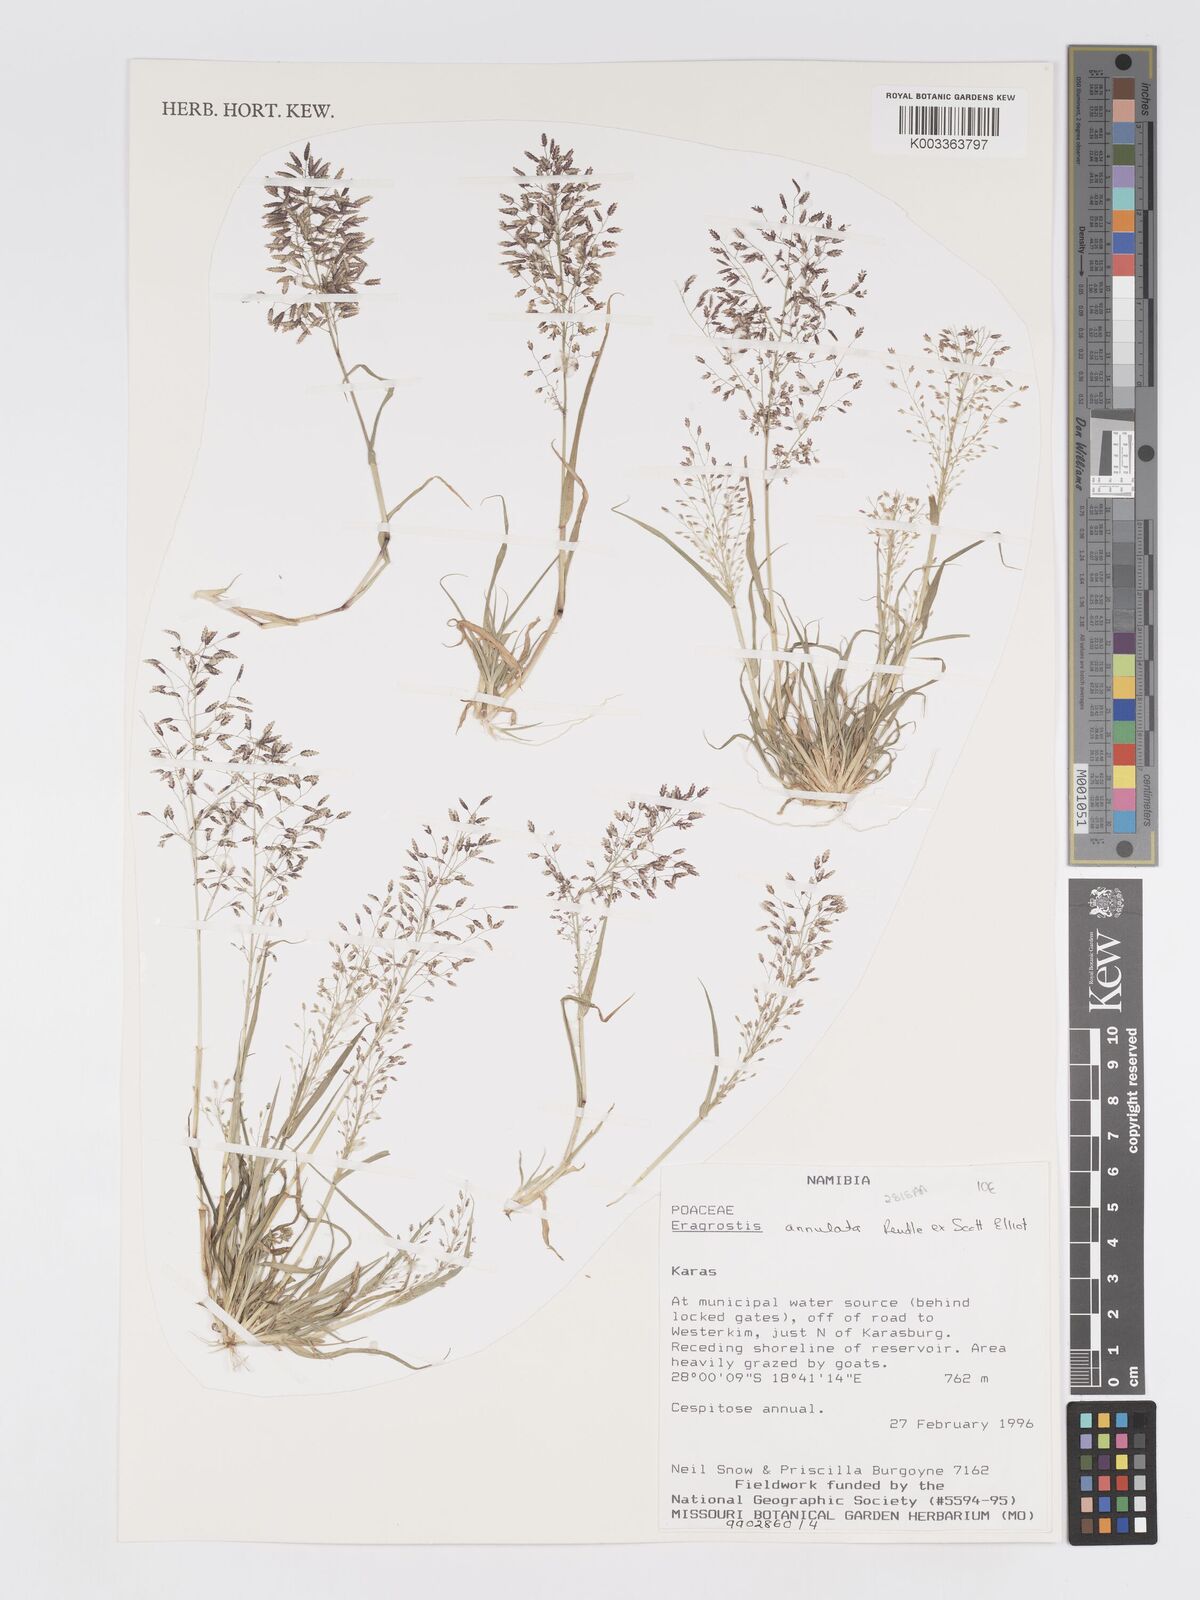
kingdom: Plantae
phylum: Tracheophyta
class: Liliopsida
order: Poales
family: Poaceae
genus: Eragrostis
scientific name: Eragrostis annulata
